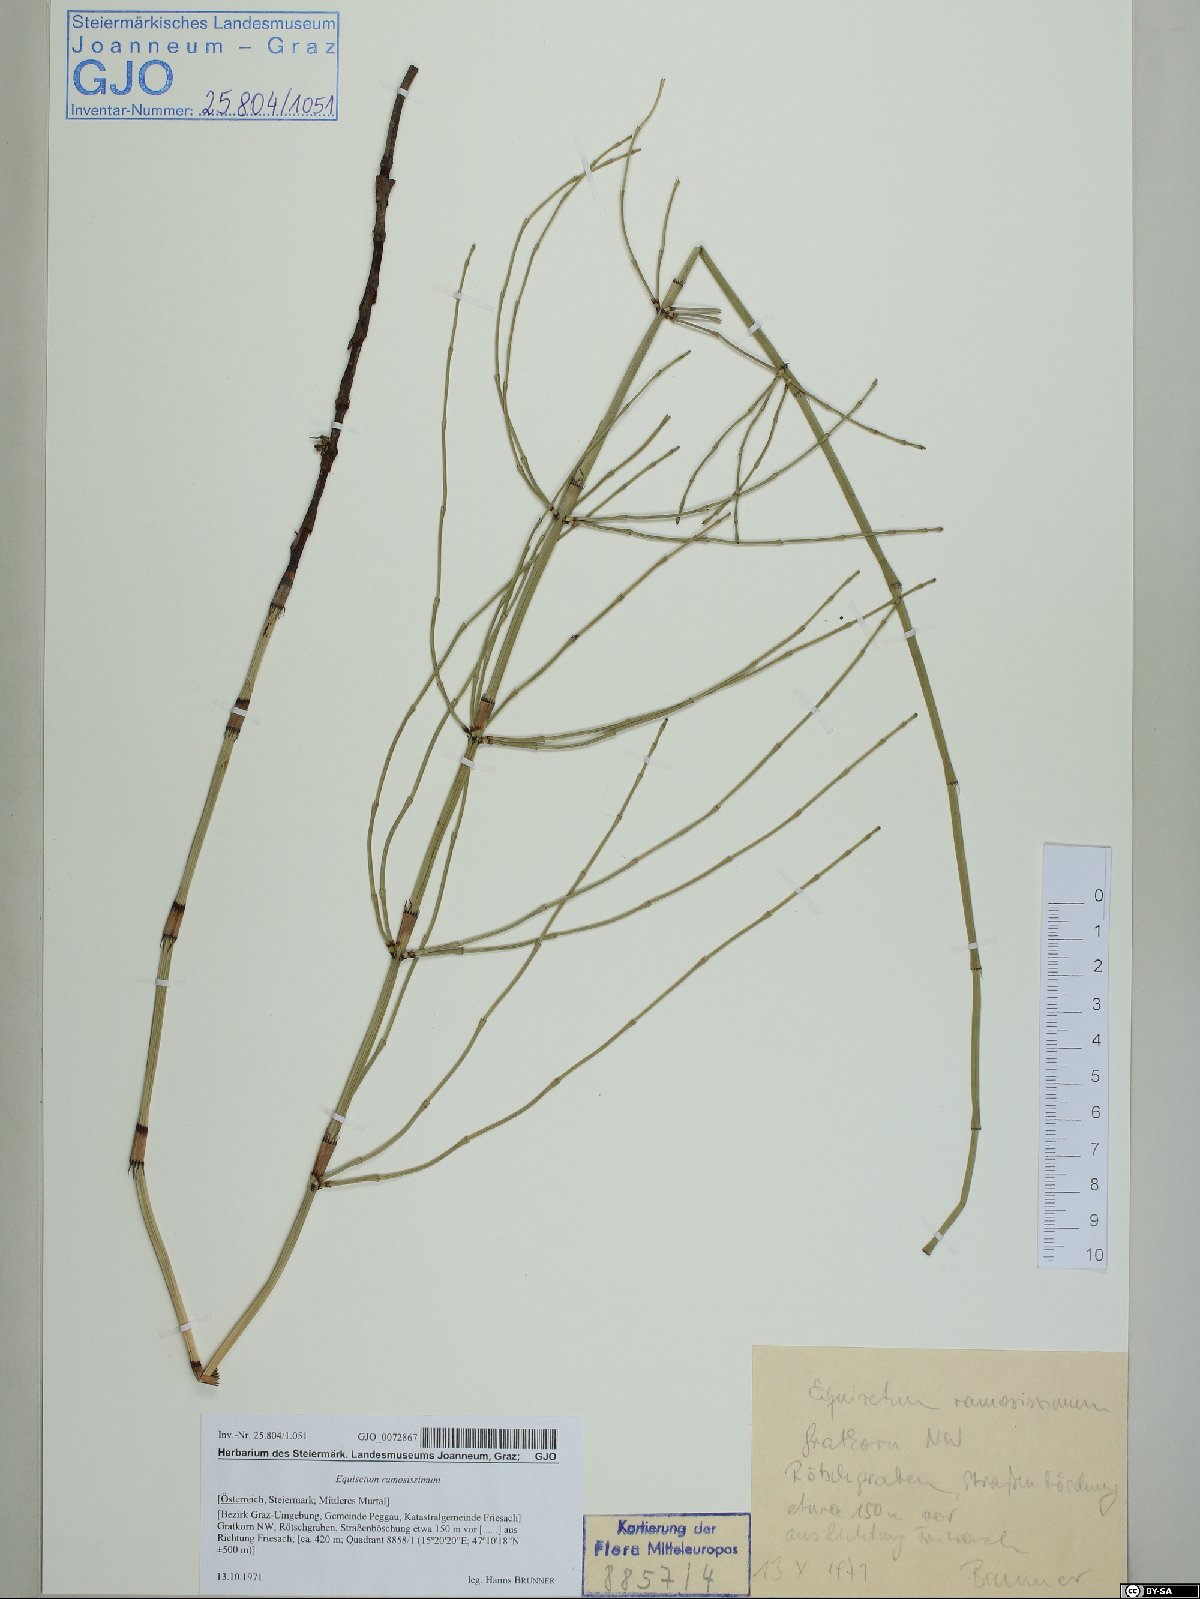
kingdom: Plantae
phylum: Tracheophyta
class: Polypodiopsida
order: Equisetales
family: Equisetaceae
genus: Equisetum
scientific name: Equisetum ramosissimum
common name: Branched horsetail
